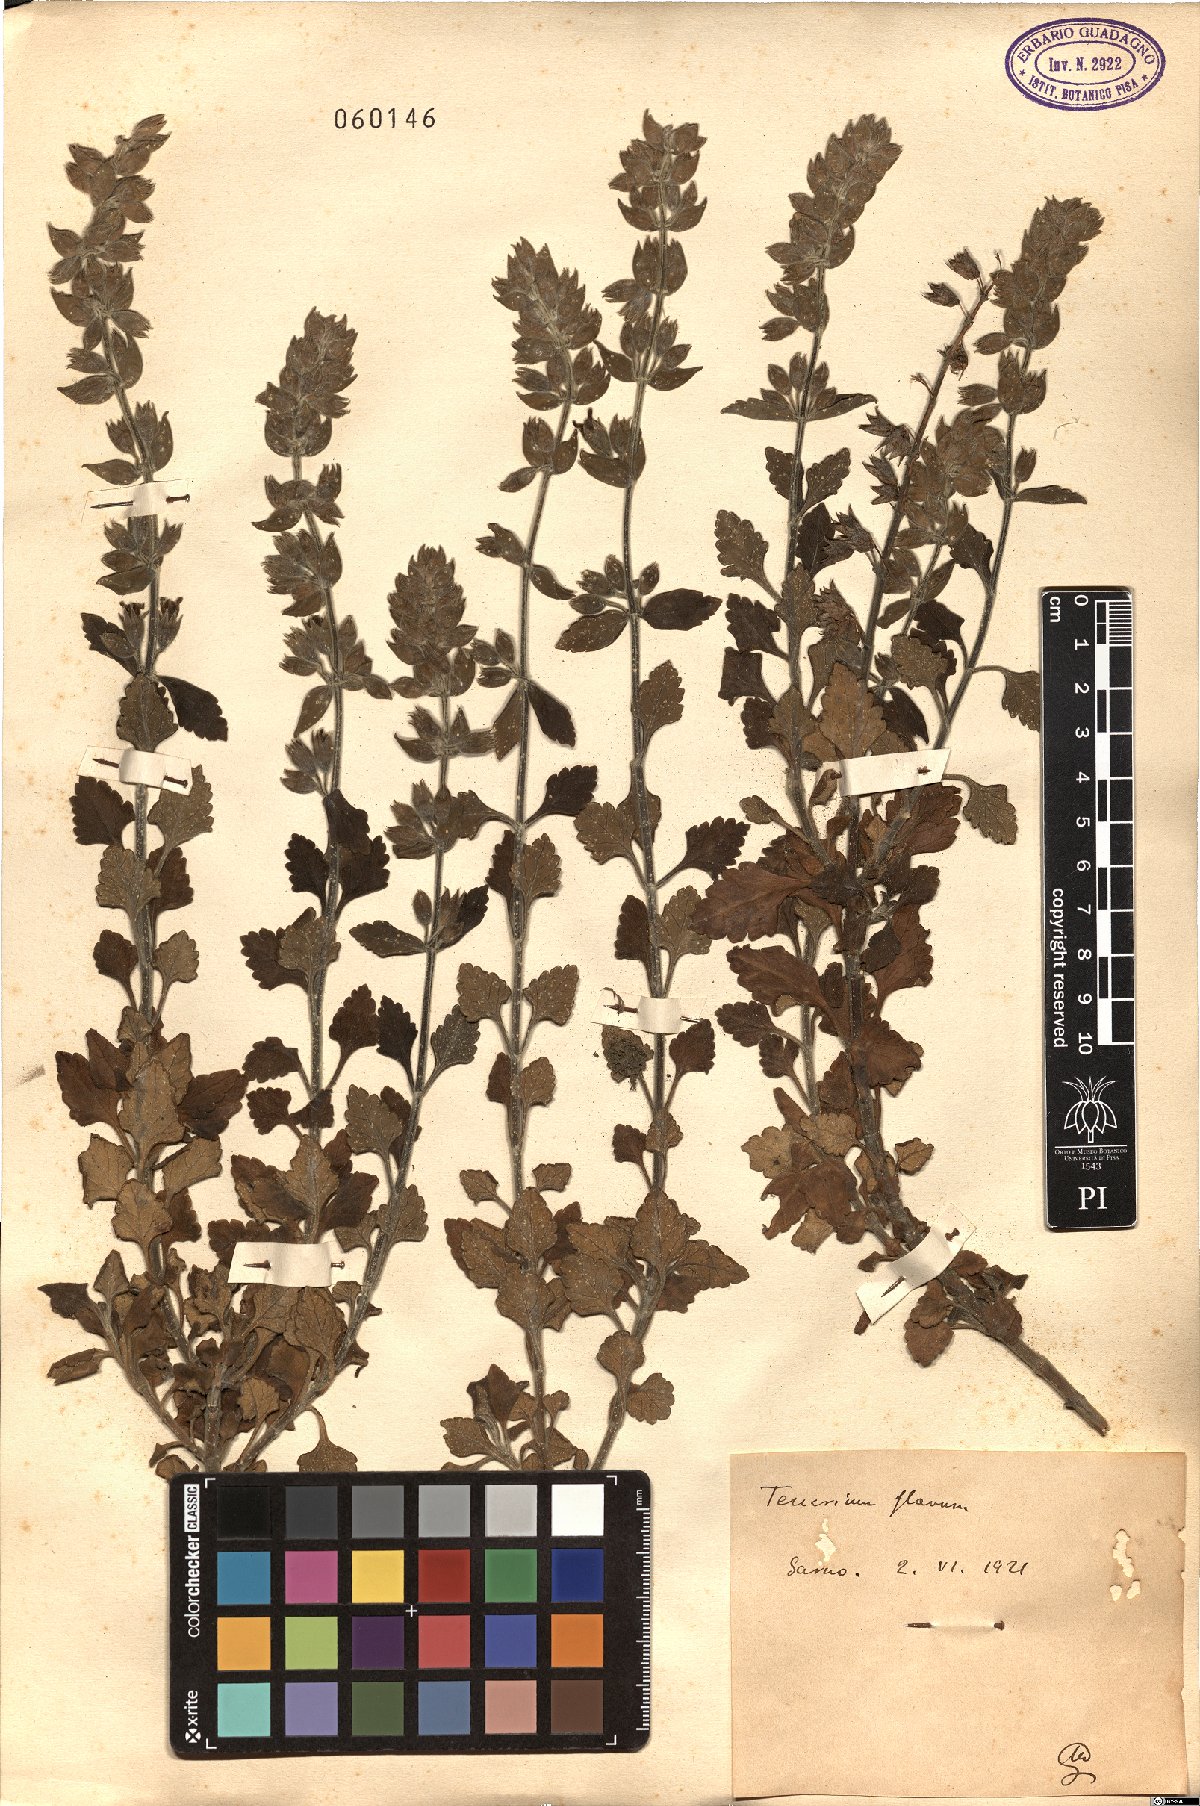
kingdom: Plantae
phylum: Tracheophyta
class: Magnoliopsida
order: Lamiales
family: Lamiaceae
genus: Teucrium
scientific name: Teucrium flavum
